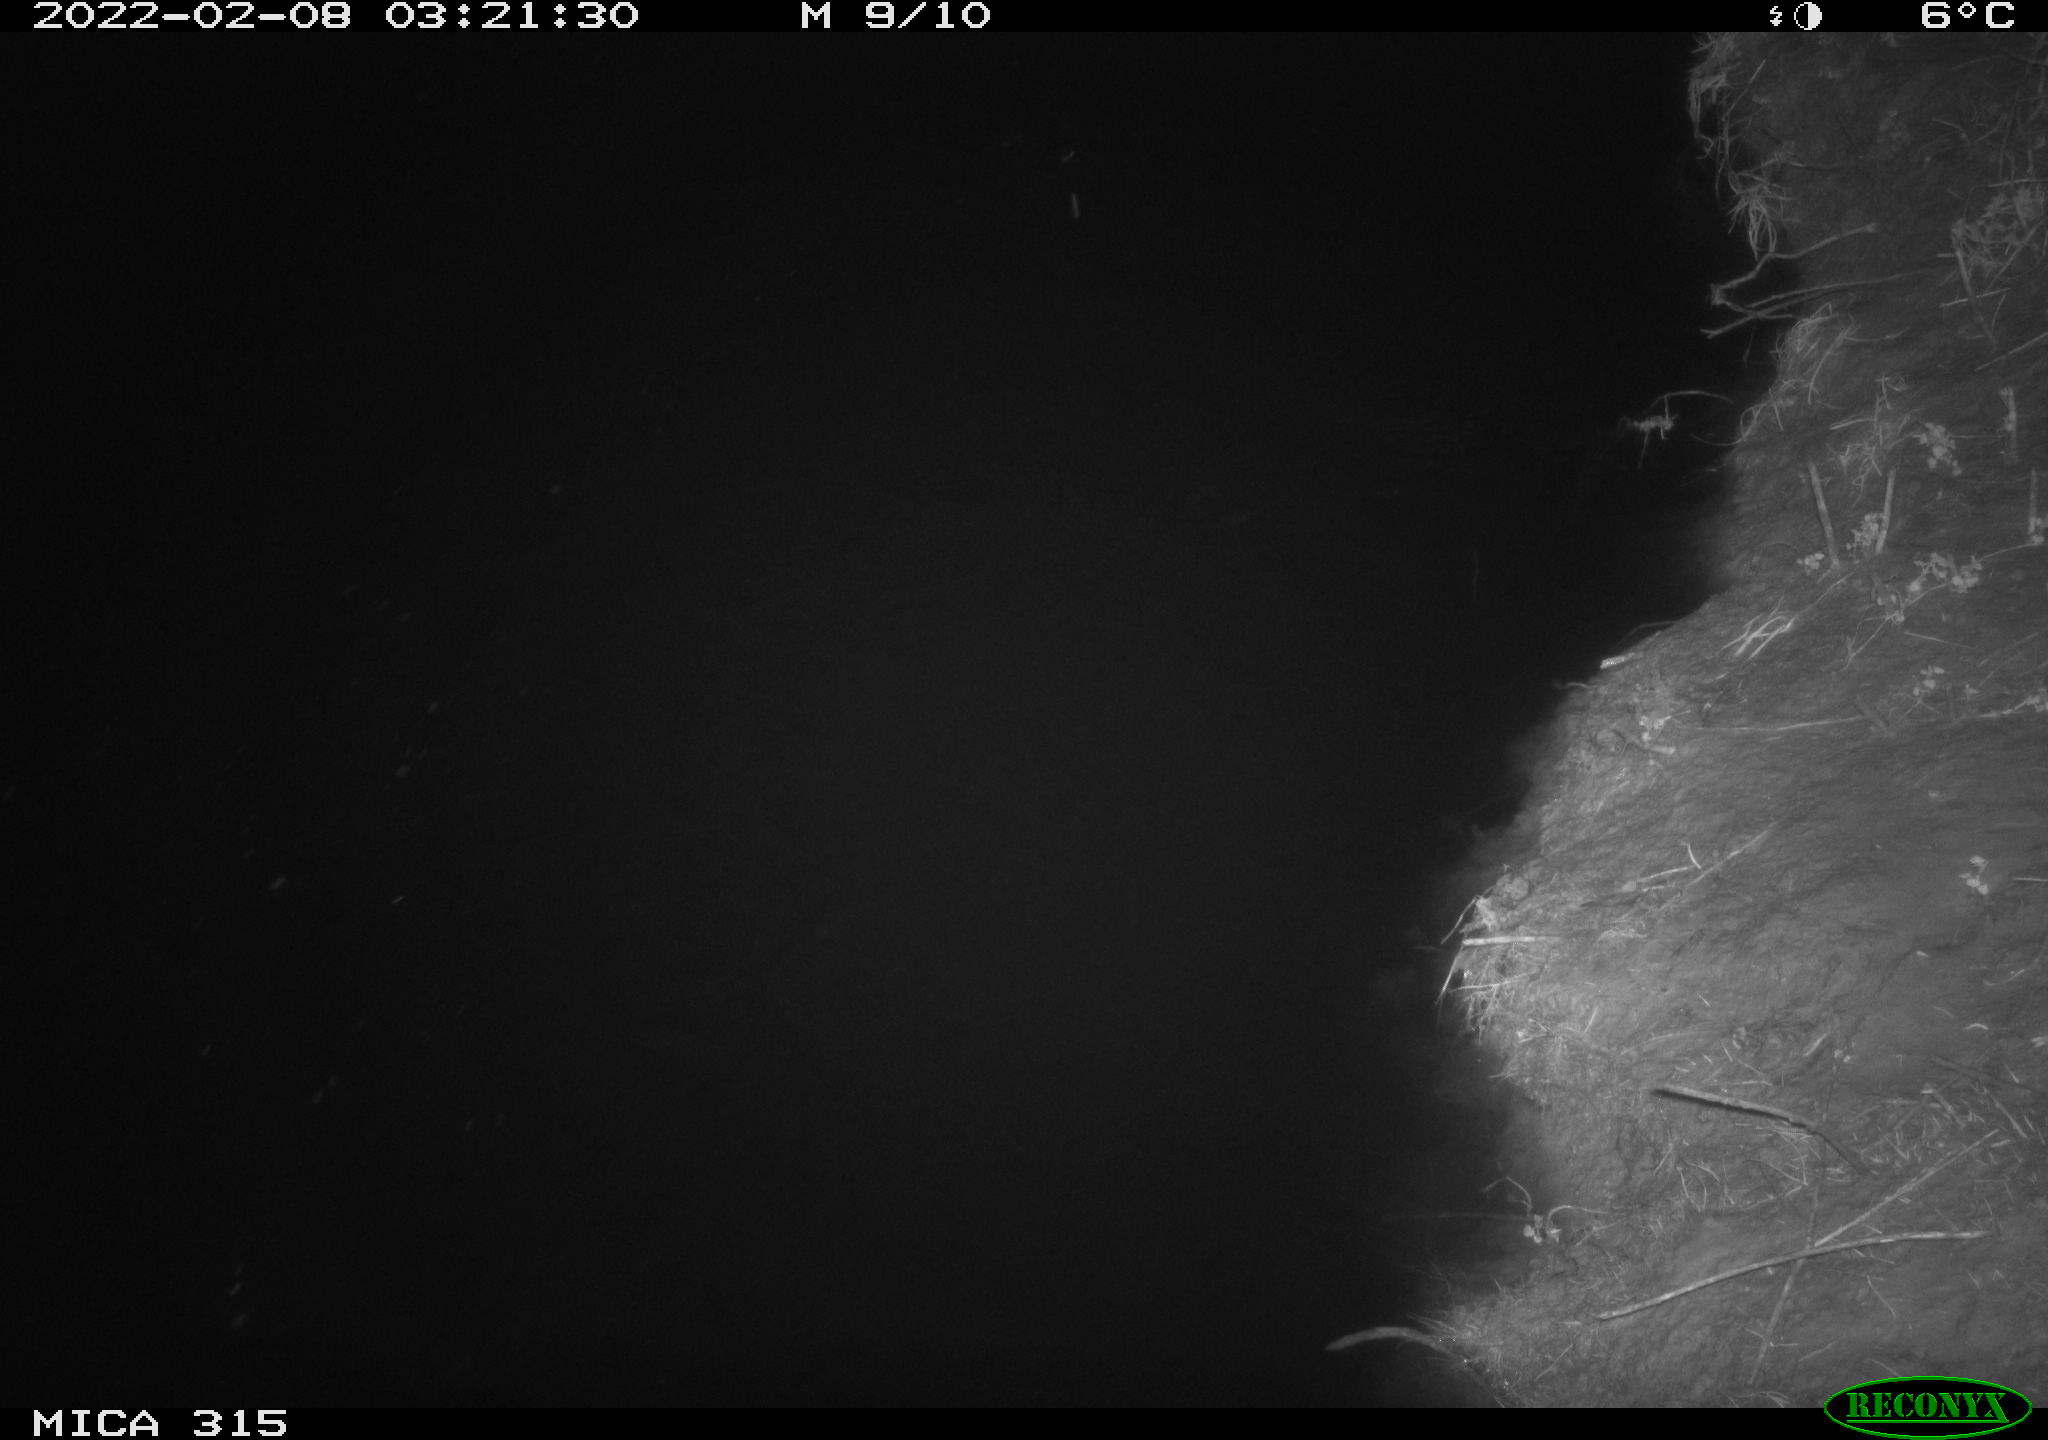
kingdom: Animalia
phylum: Chordata
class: Mammalia
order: Rodentia
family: Muridae
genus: Rattus
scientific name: Rattus norvegicus
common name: Brown rat
